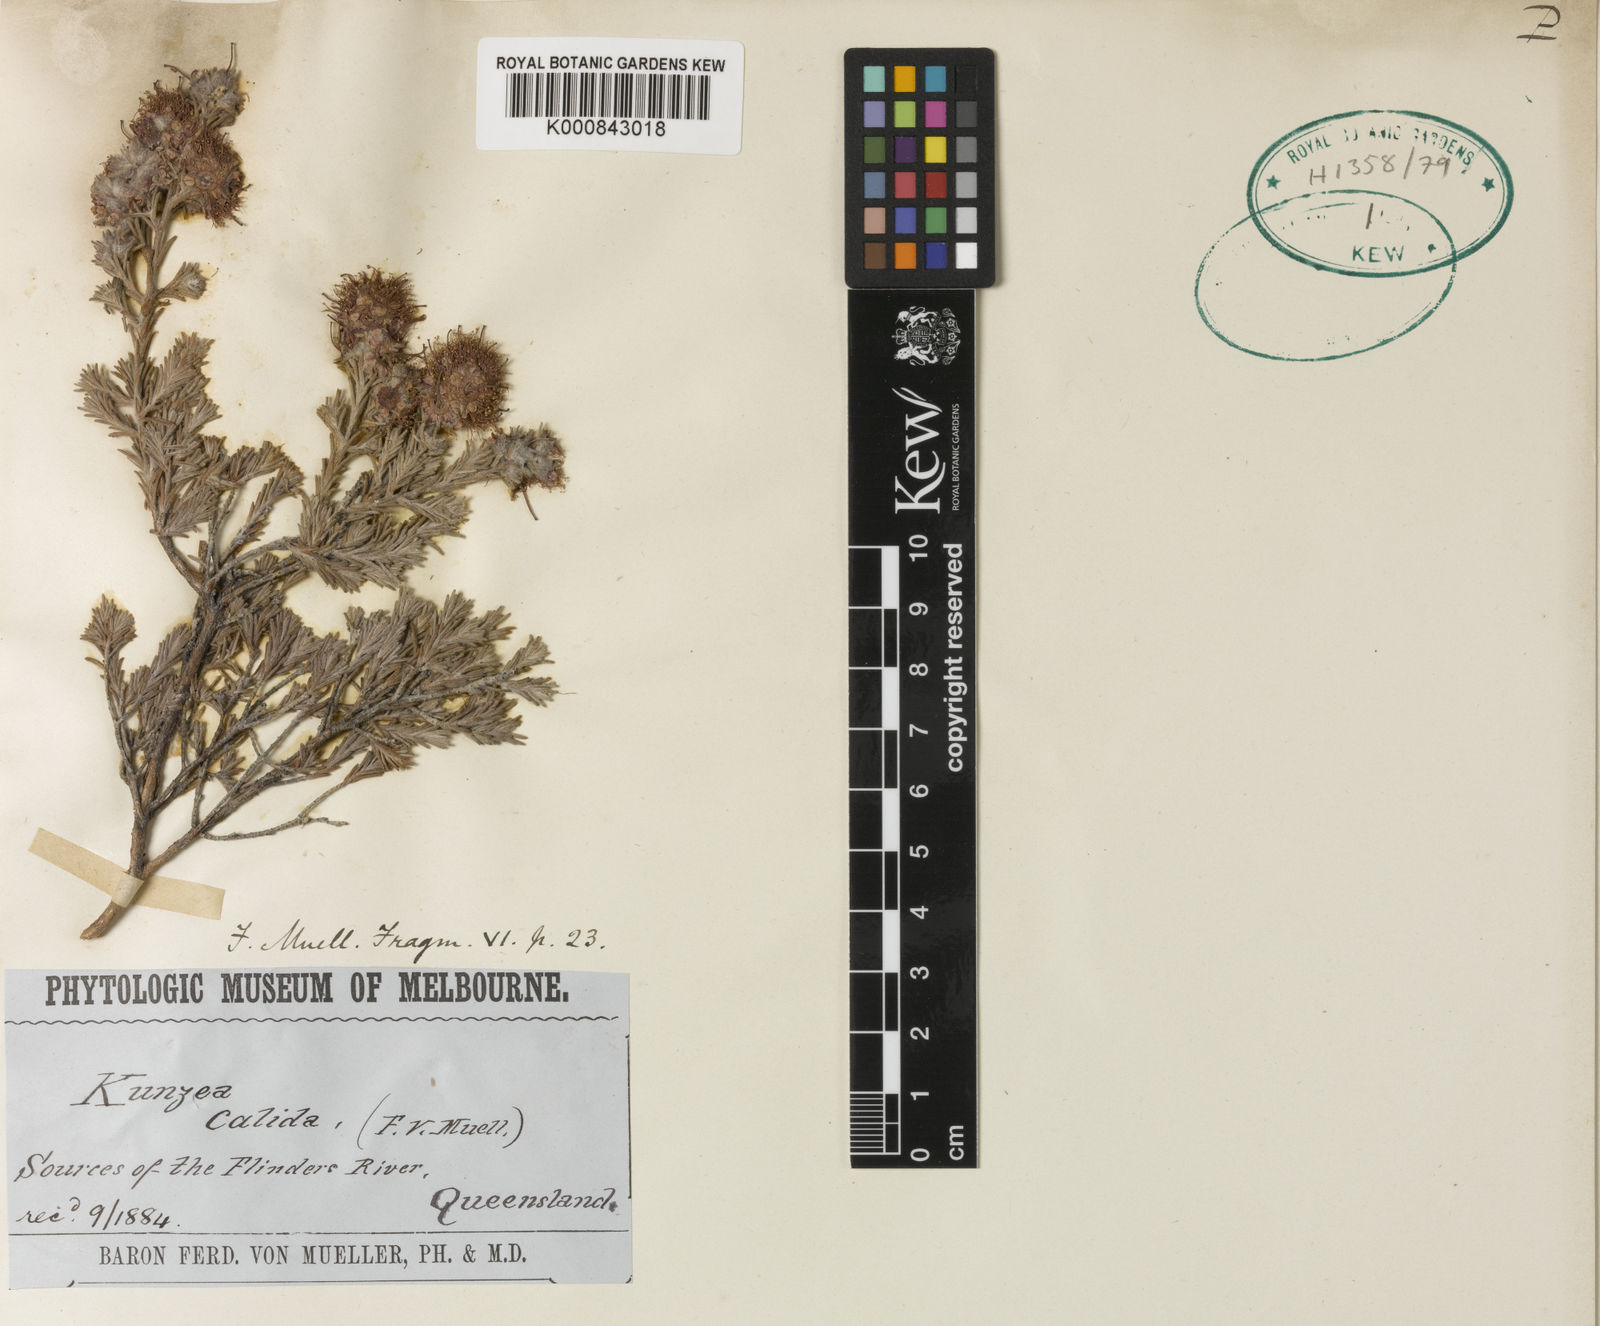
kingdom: Plantae
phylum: Tracheophyta
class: Magnoliopsida
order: Myrtales
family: Myrtaceae
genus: Kunzea
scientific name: Kunzea calida
